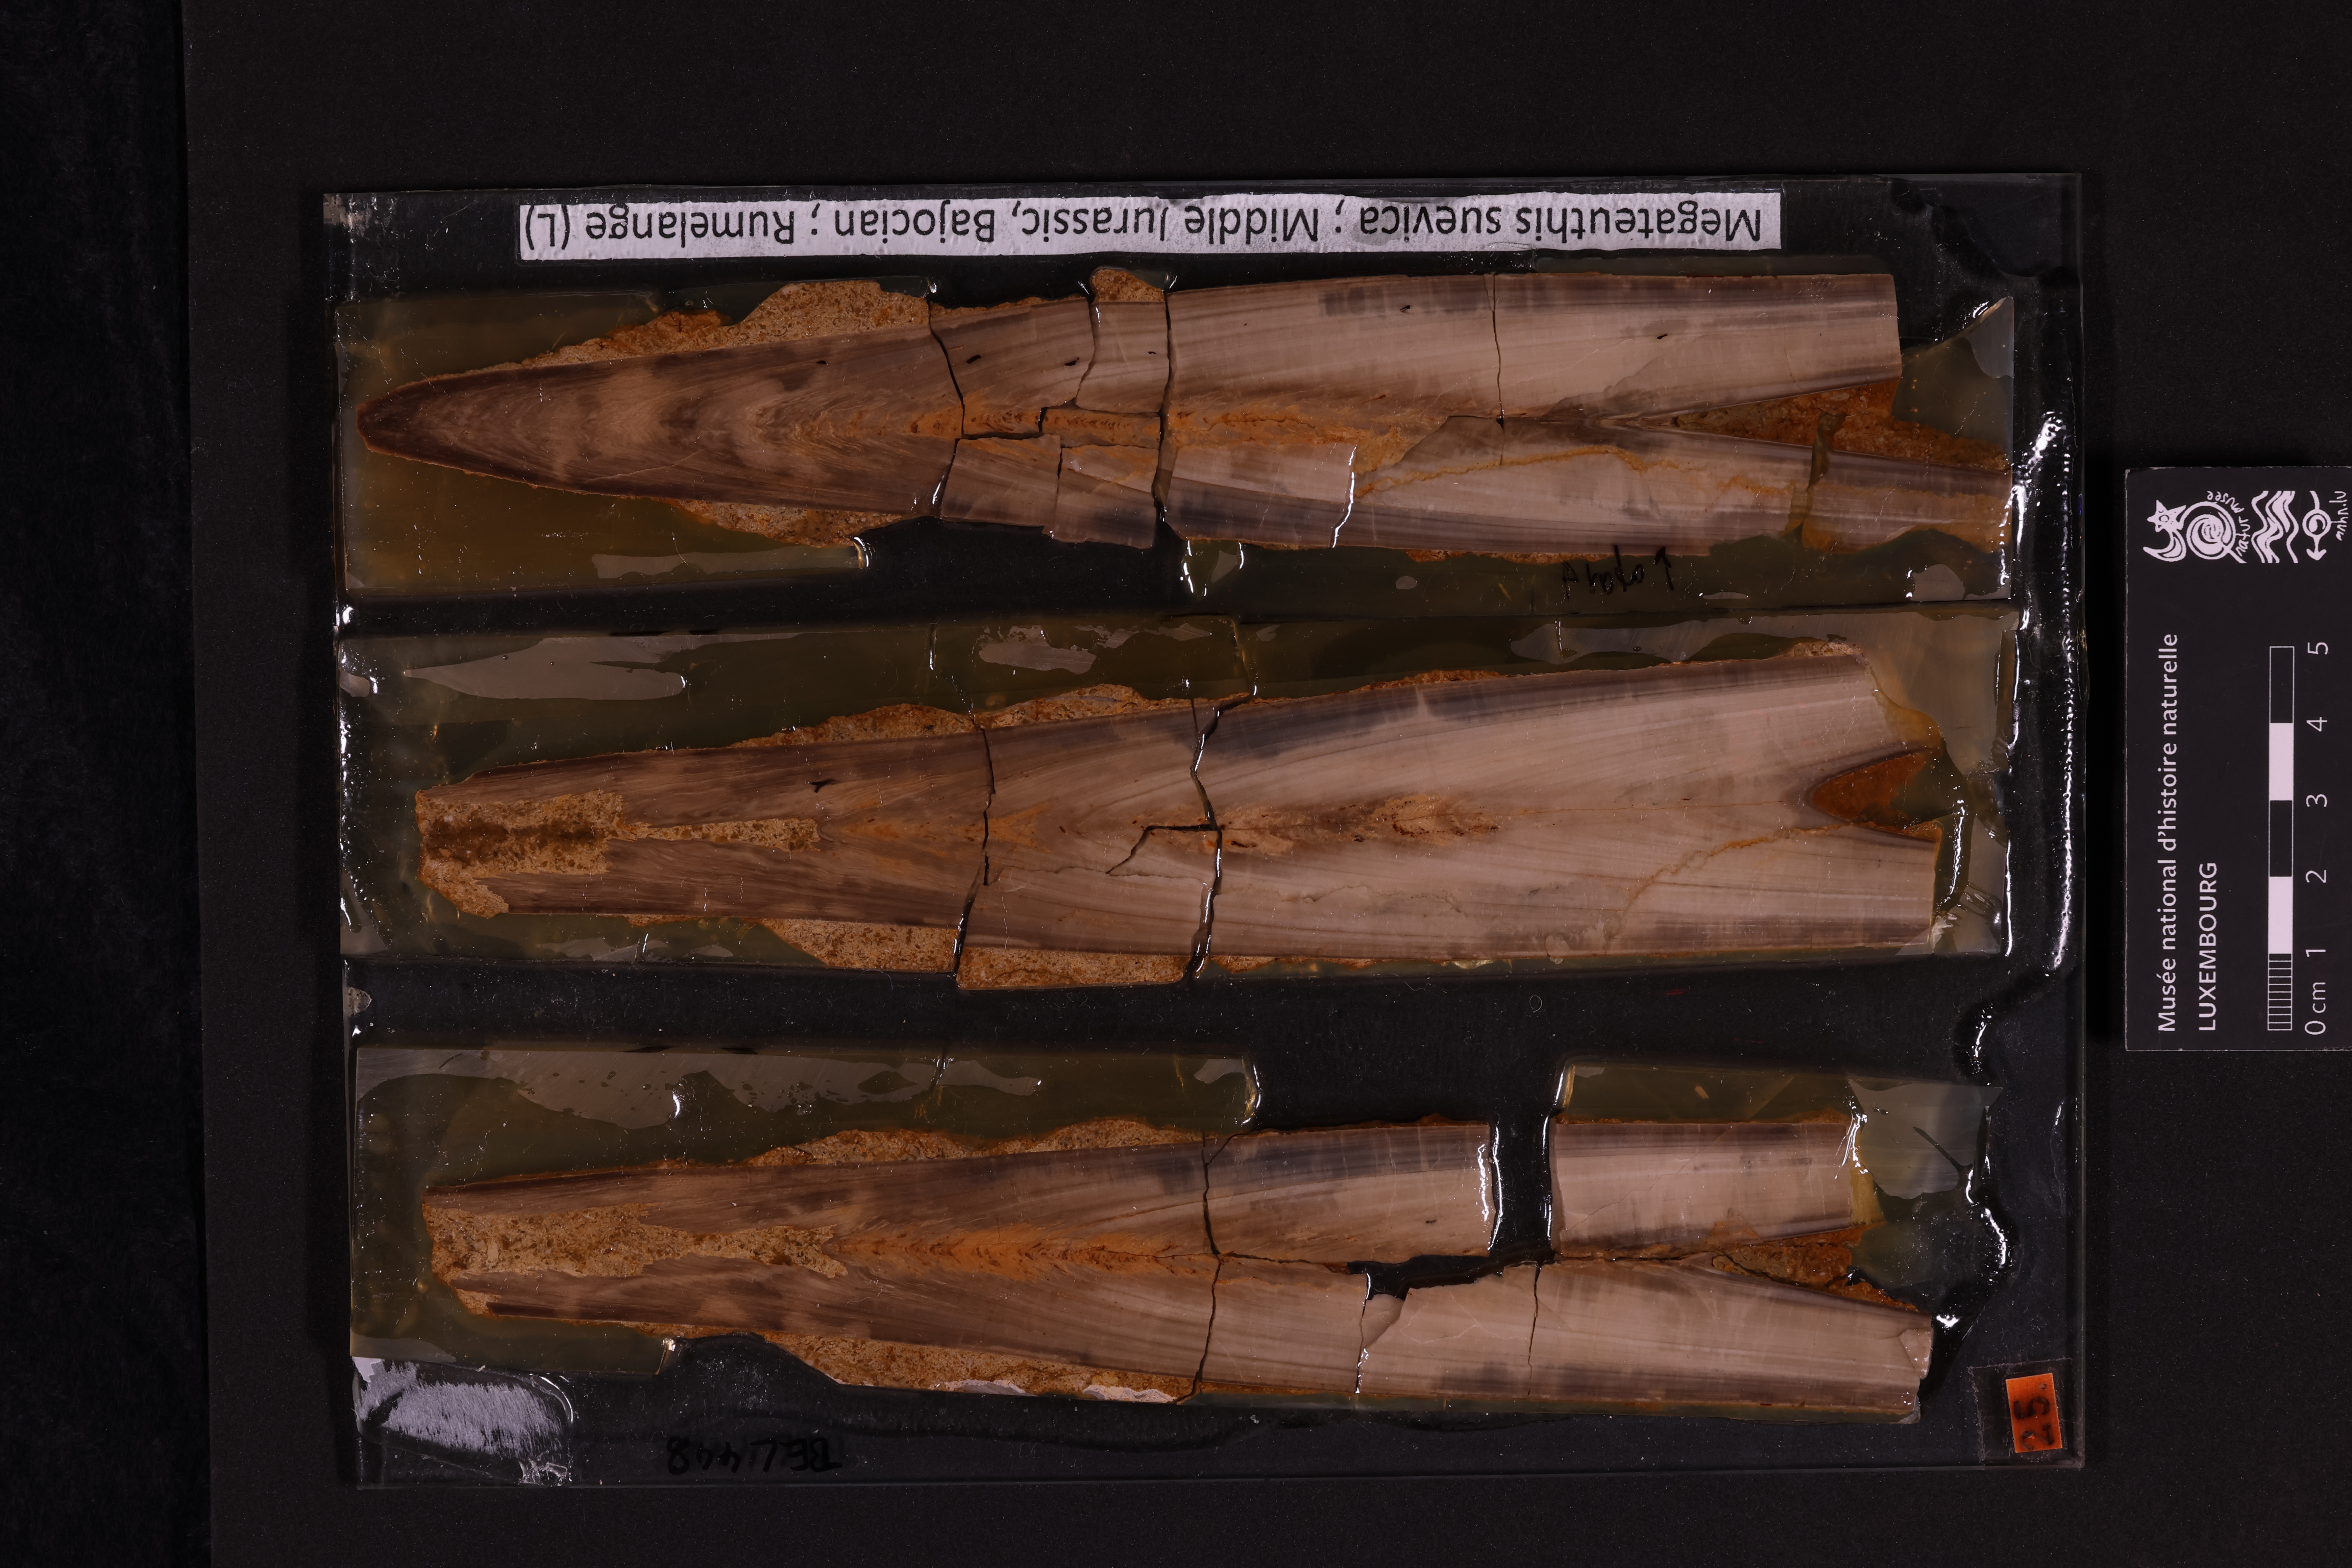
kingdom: Animalia
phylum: Mollusca
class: Cephalopoda
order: Belemnitida
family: Megateuthididae
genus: Megateuthis
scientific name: Megateuthis
